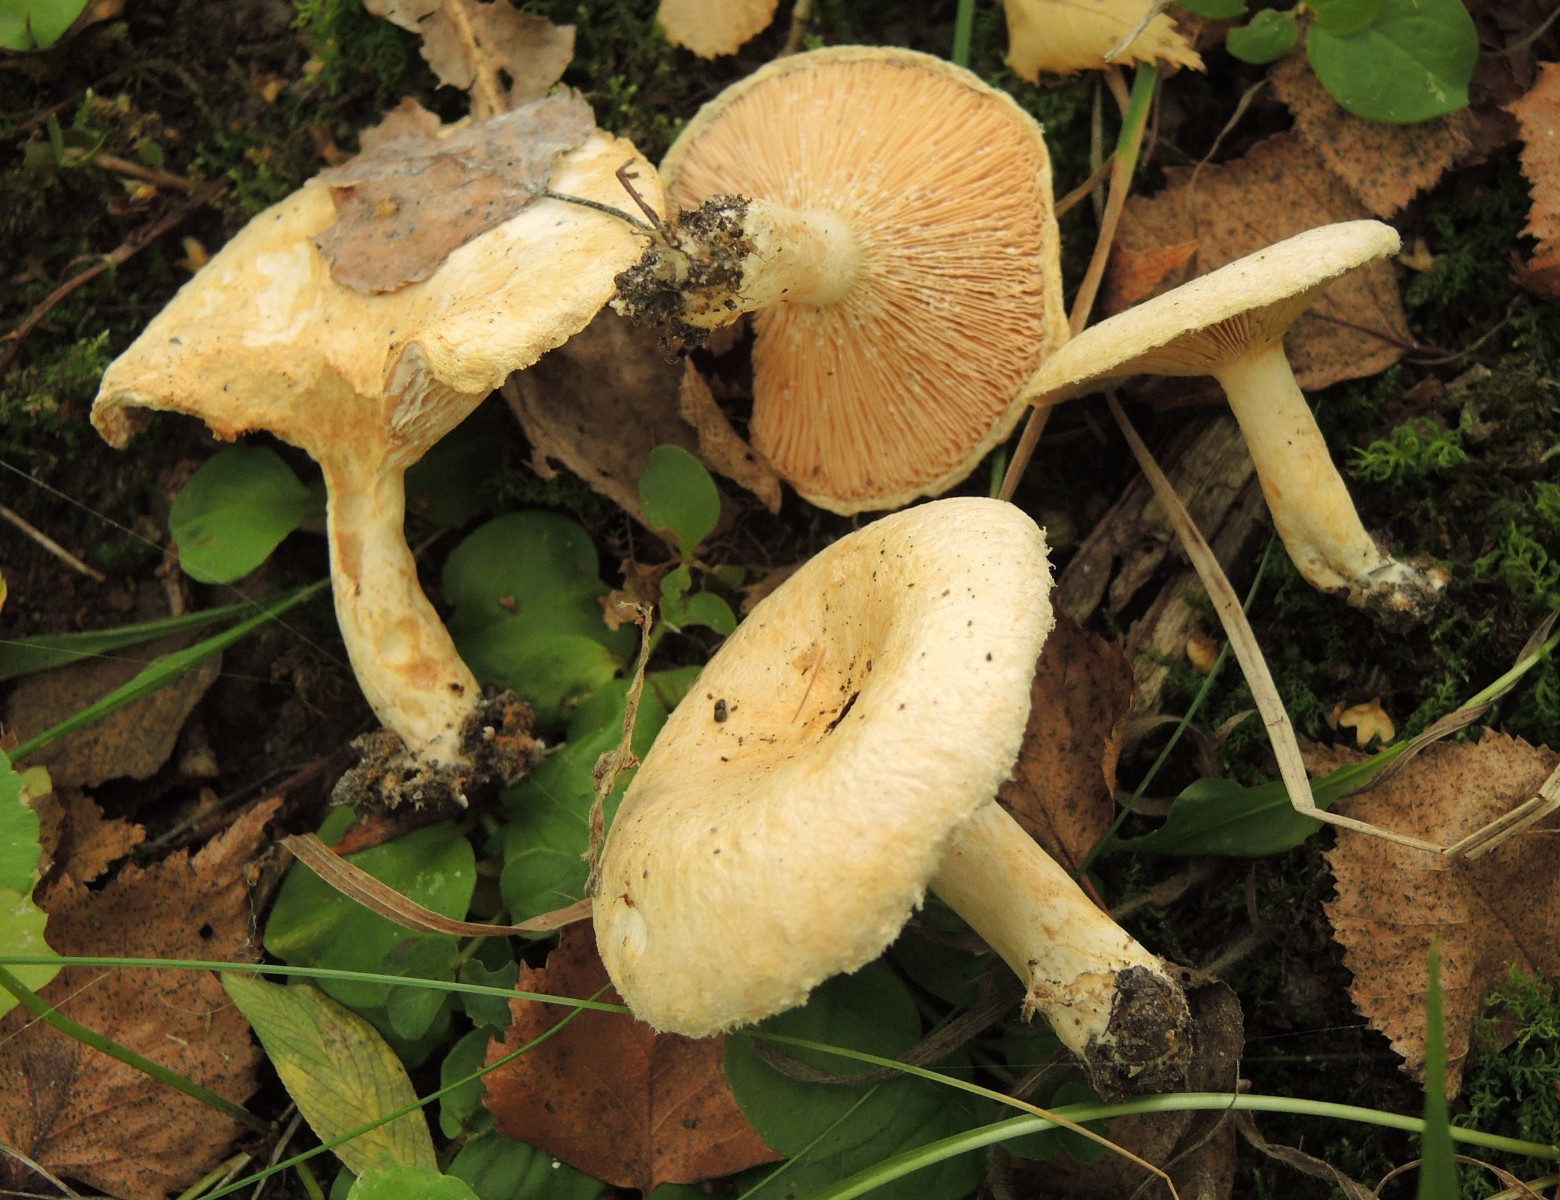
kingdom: Fungi
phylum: Basidiomycota
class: Agaricomycetes
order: Russulales
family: Russulaceae
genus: Lactarius
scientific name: Lactarius scoticus
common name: tørve-mælkehat
